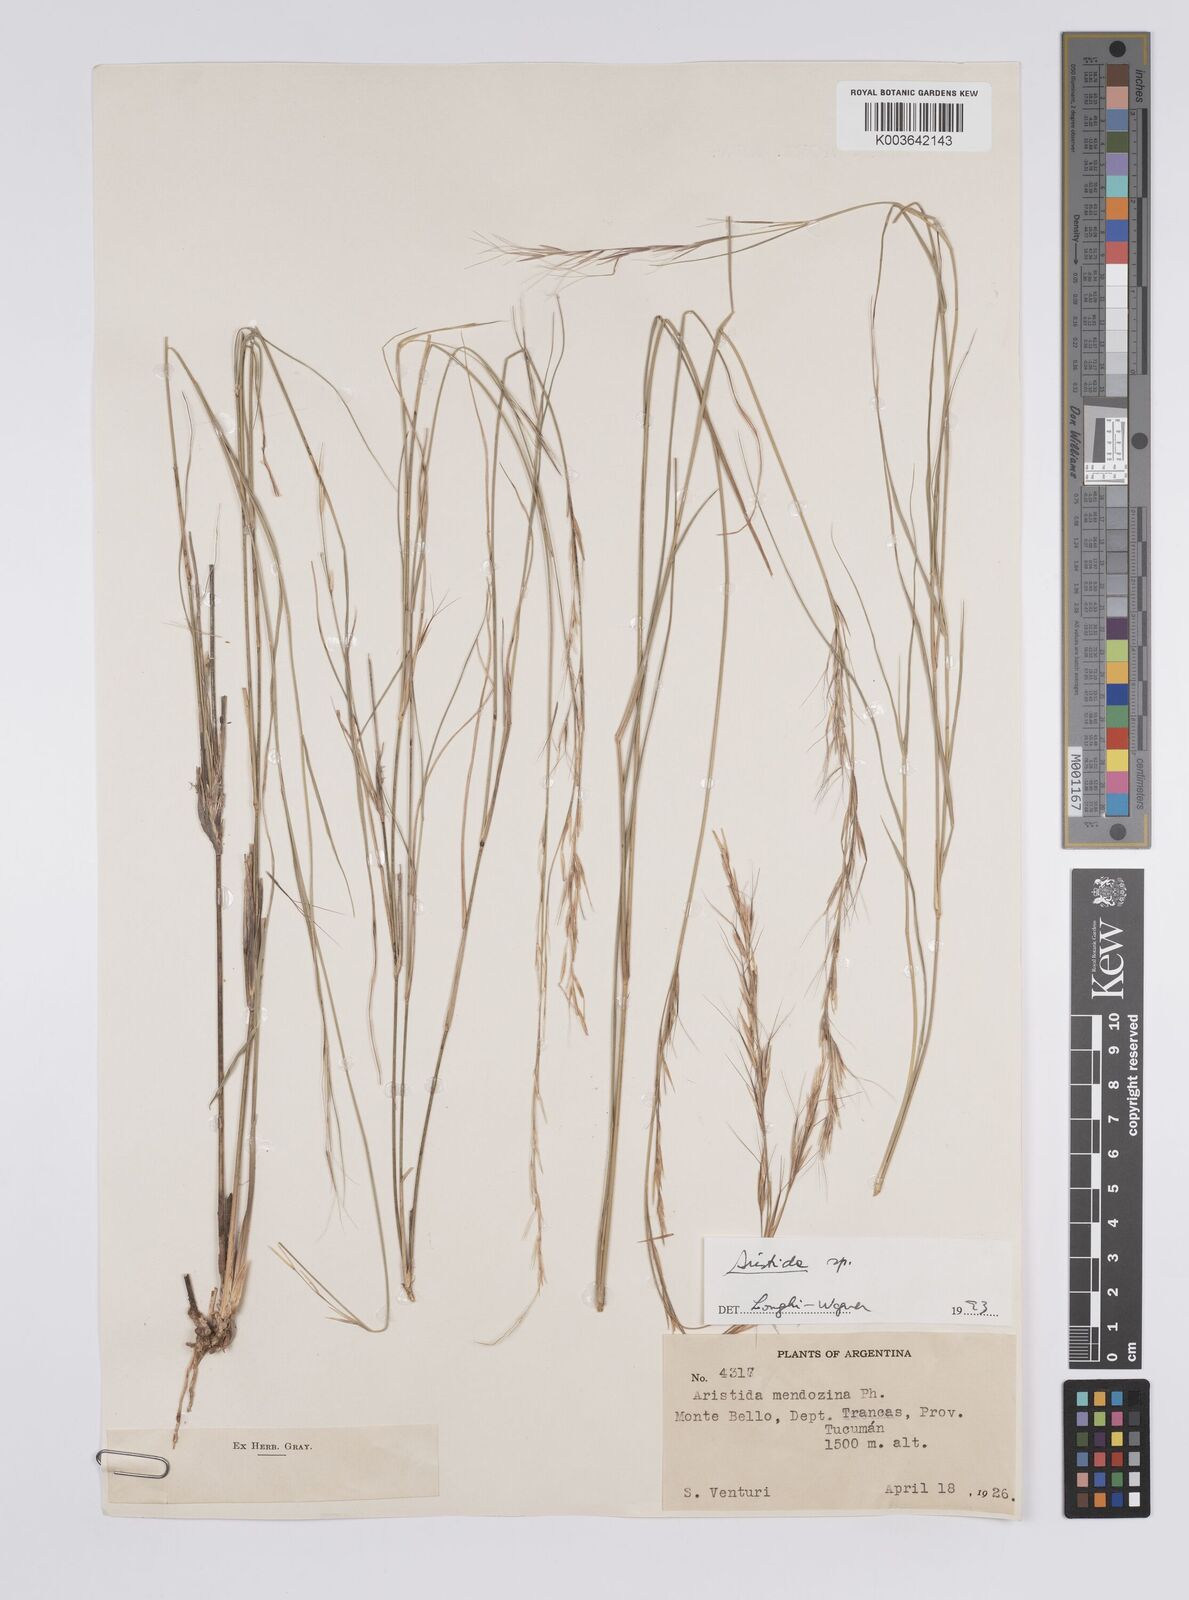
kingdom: Plantae
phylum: Tracheophyta
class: Liliopsida
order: Poales
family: Poaceae
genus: Aristida
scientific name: Aristida
